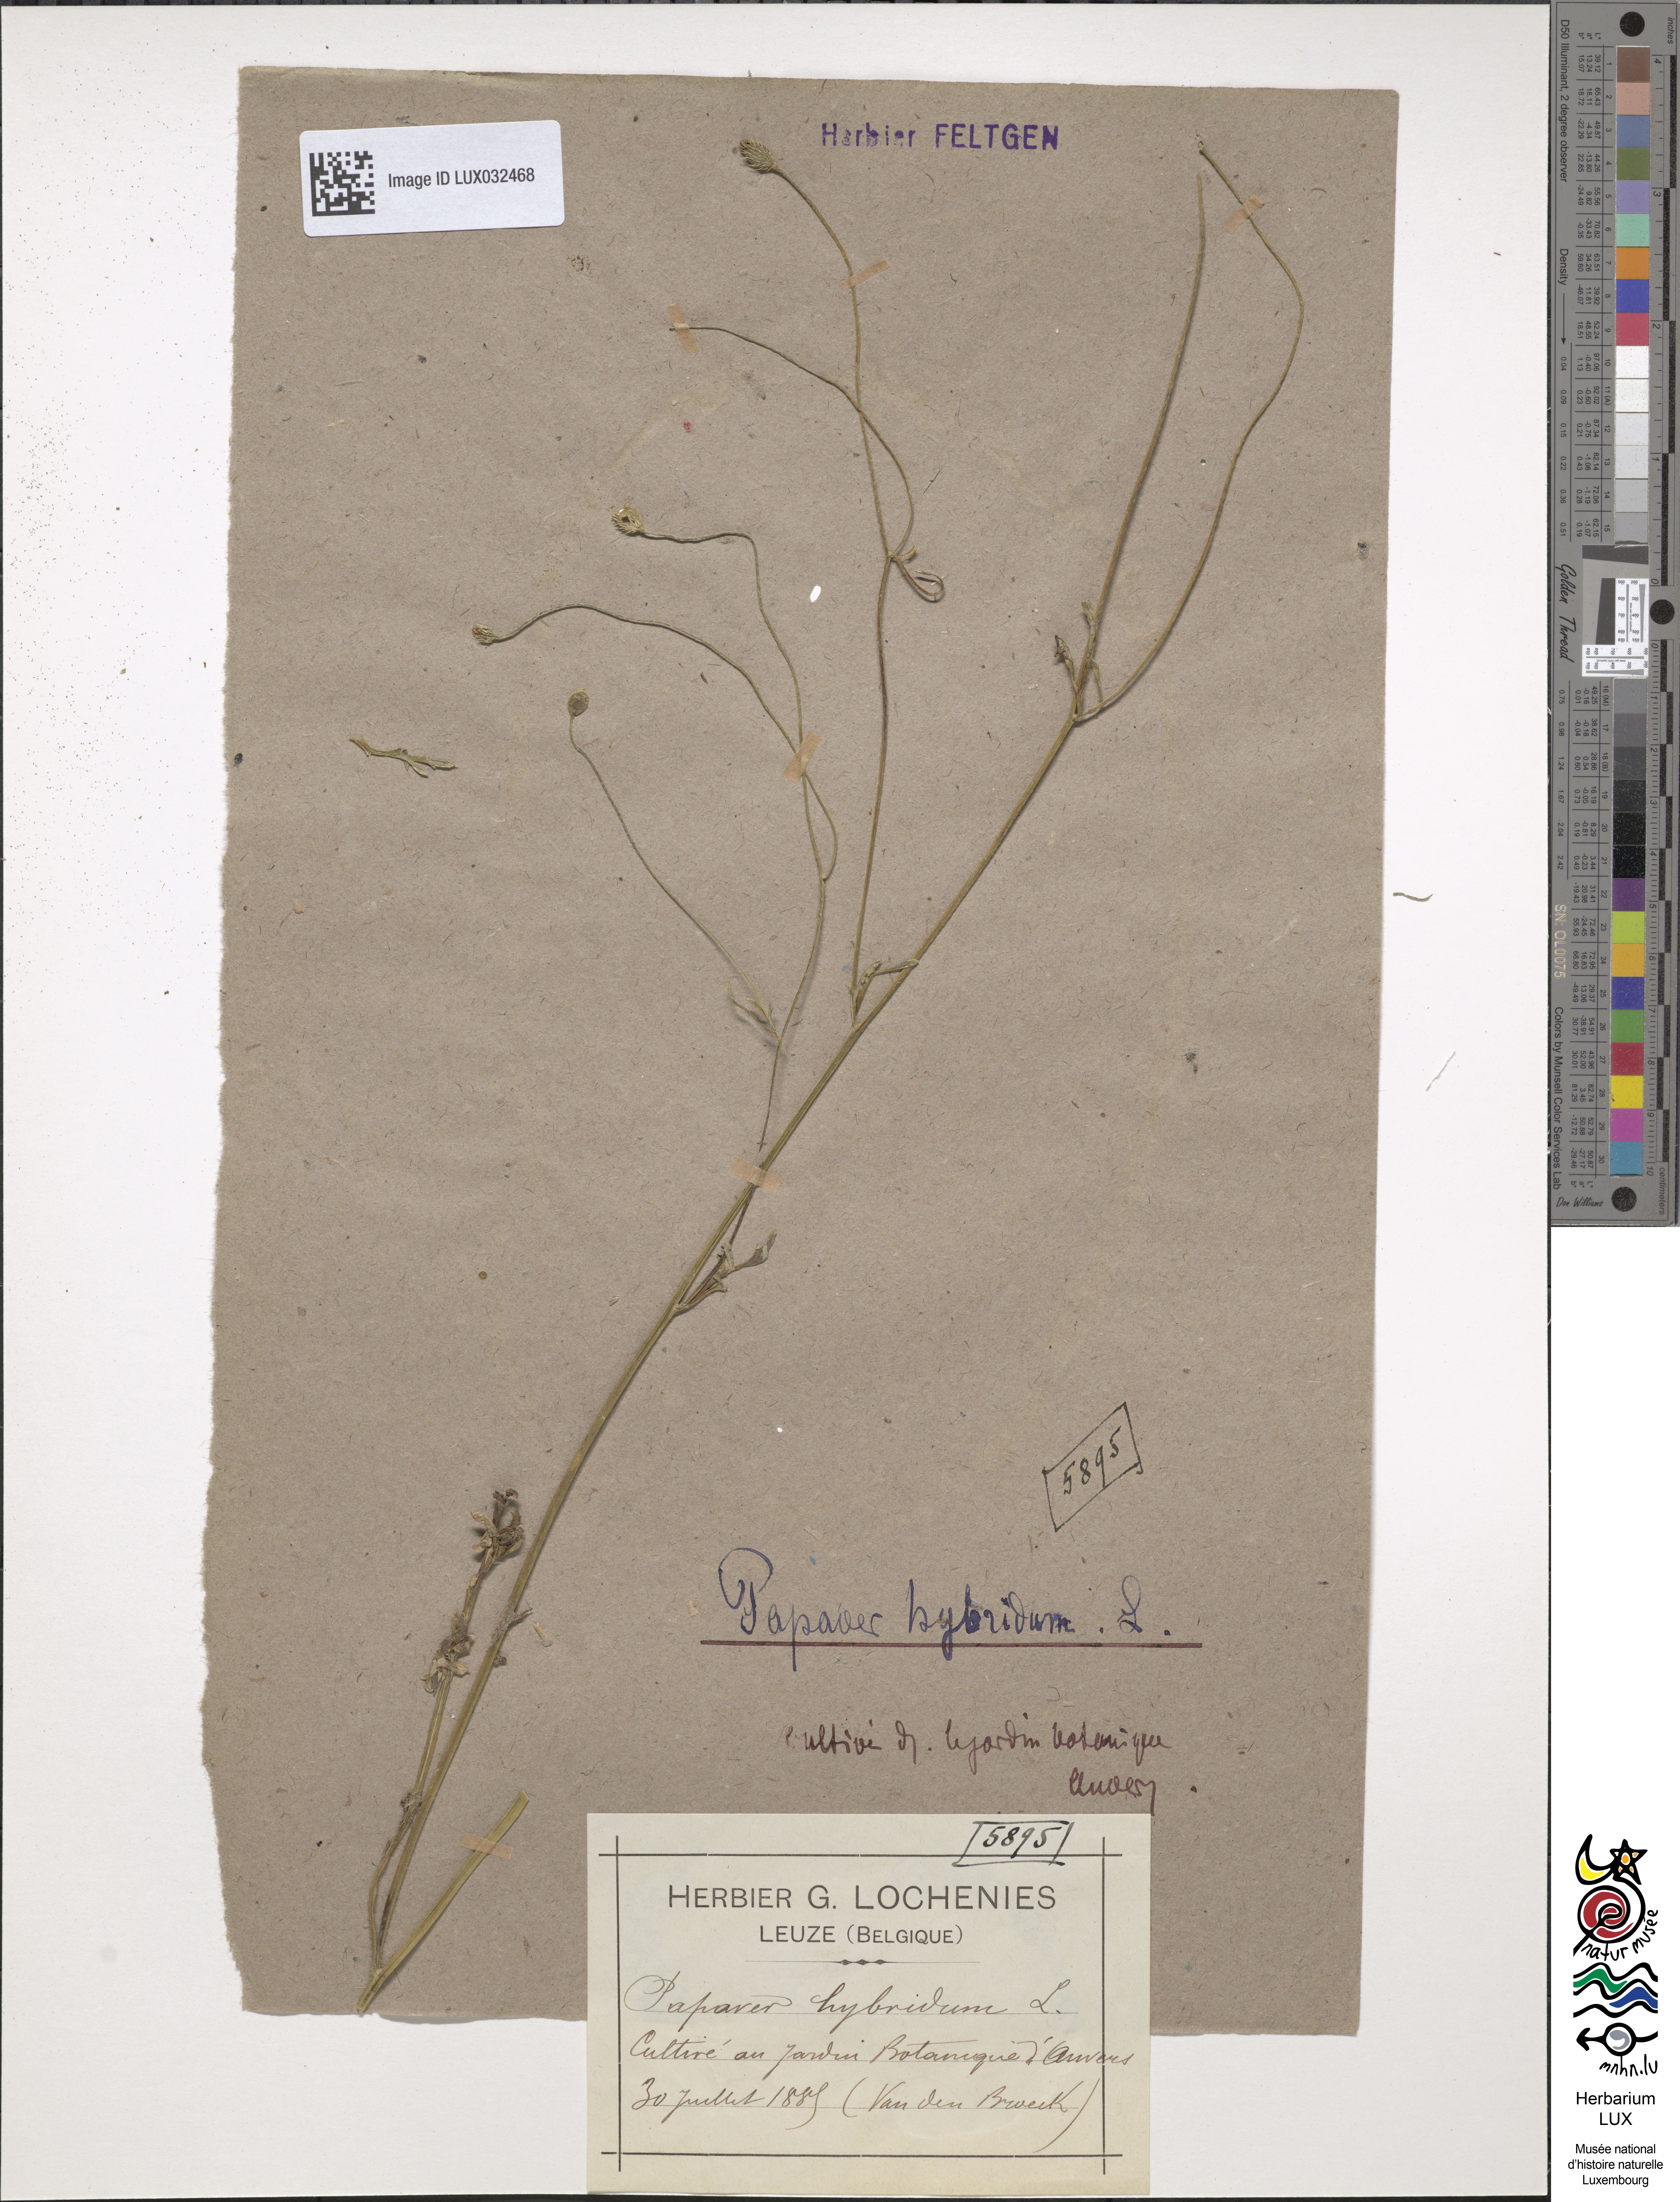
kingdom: Plantae
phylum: Tracheophyta
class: Magnoliopsida
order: Ranunculales
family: Papaveraceae
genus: Roemeria
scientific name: Roemeria hispida
